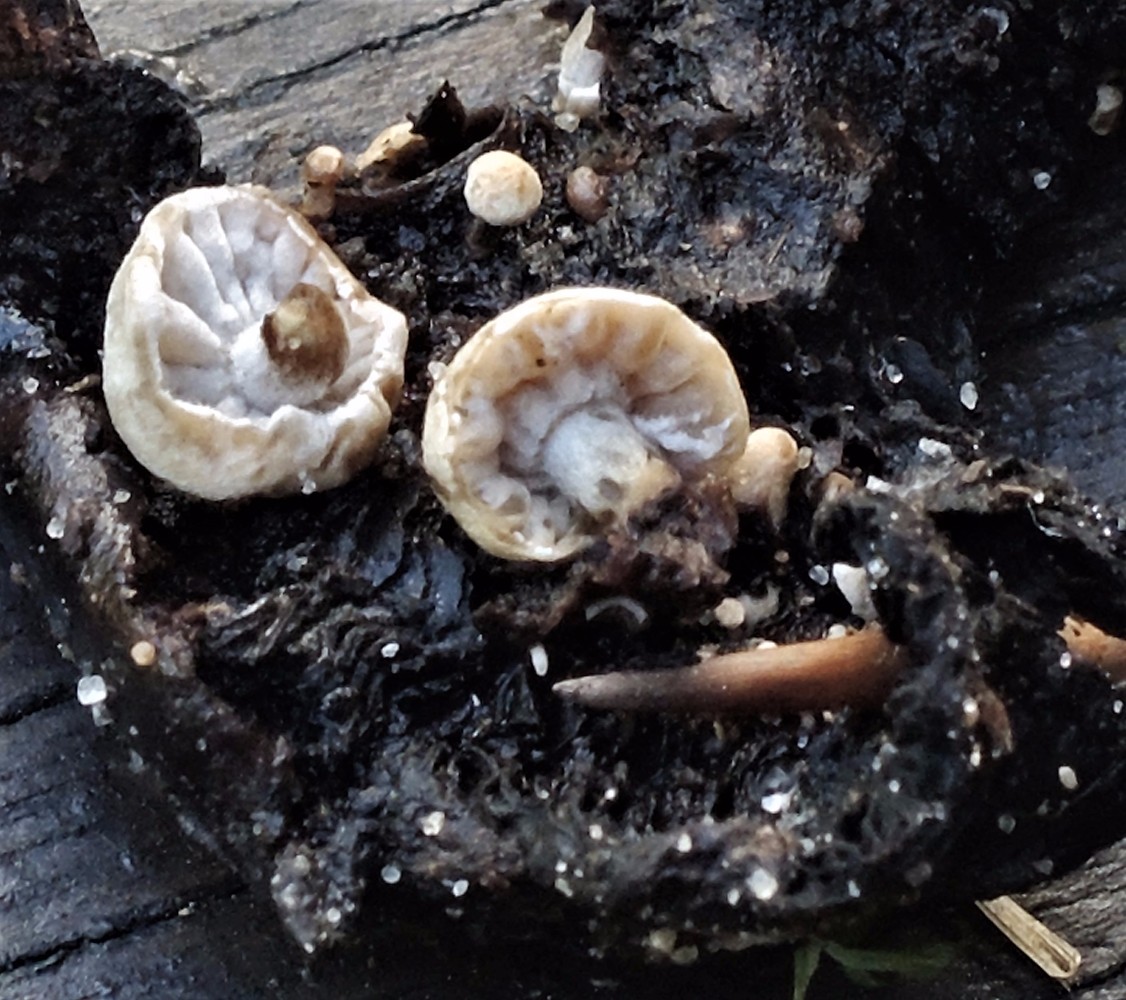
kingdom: Fungi
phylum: Basidiomycota
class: Agaricomycetes
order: Agaricales
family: Lyophyllaceae
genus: Asterophora
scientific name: Asterophora parasitica
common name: grå snyltehat
